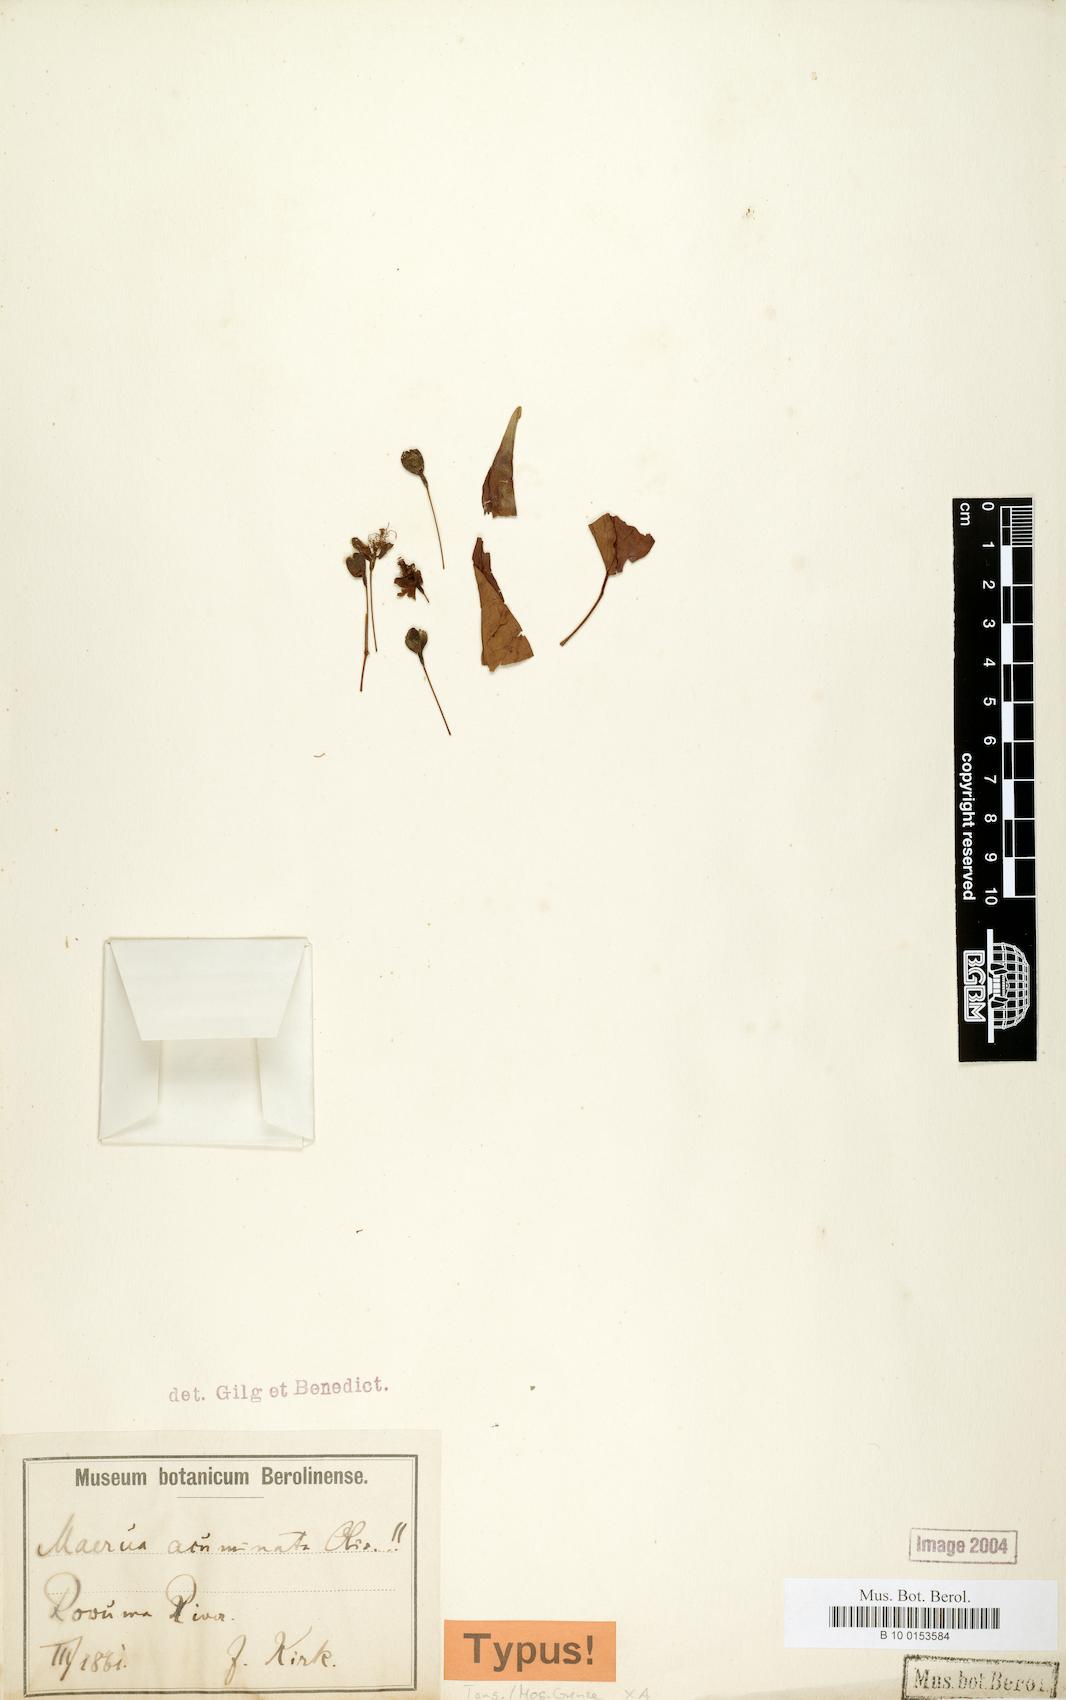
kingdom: Plantae
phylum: Tracheophyta
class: Magnoliopsida
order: Brassicales
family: Capparaceae
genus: Maerua
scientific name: Maerua acuminata
